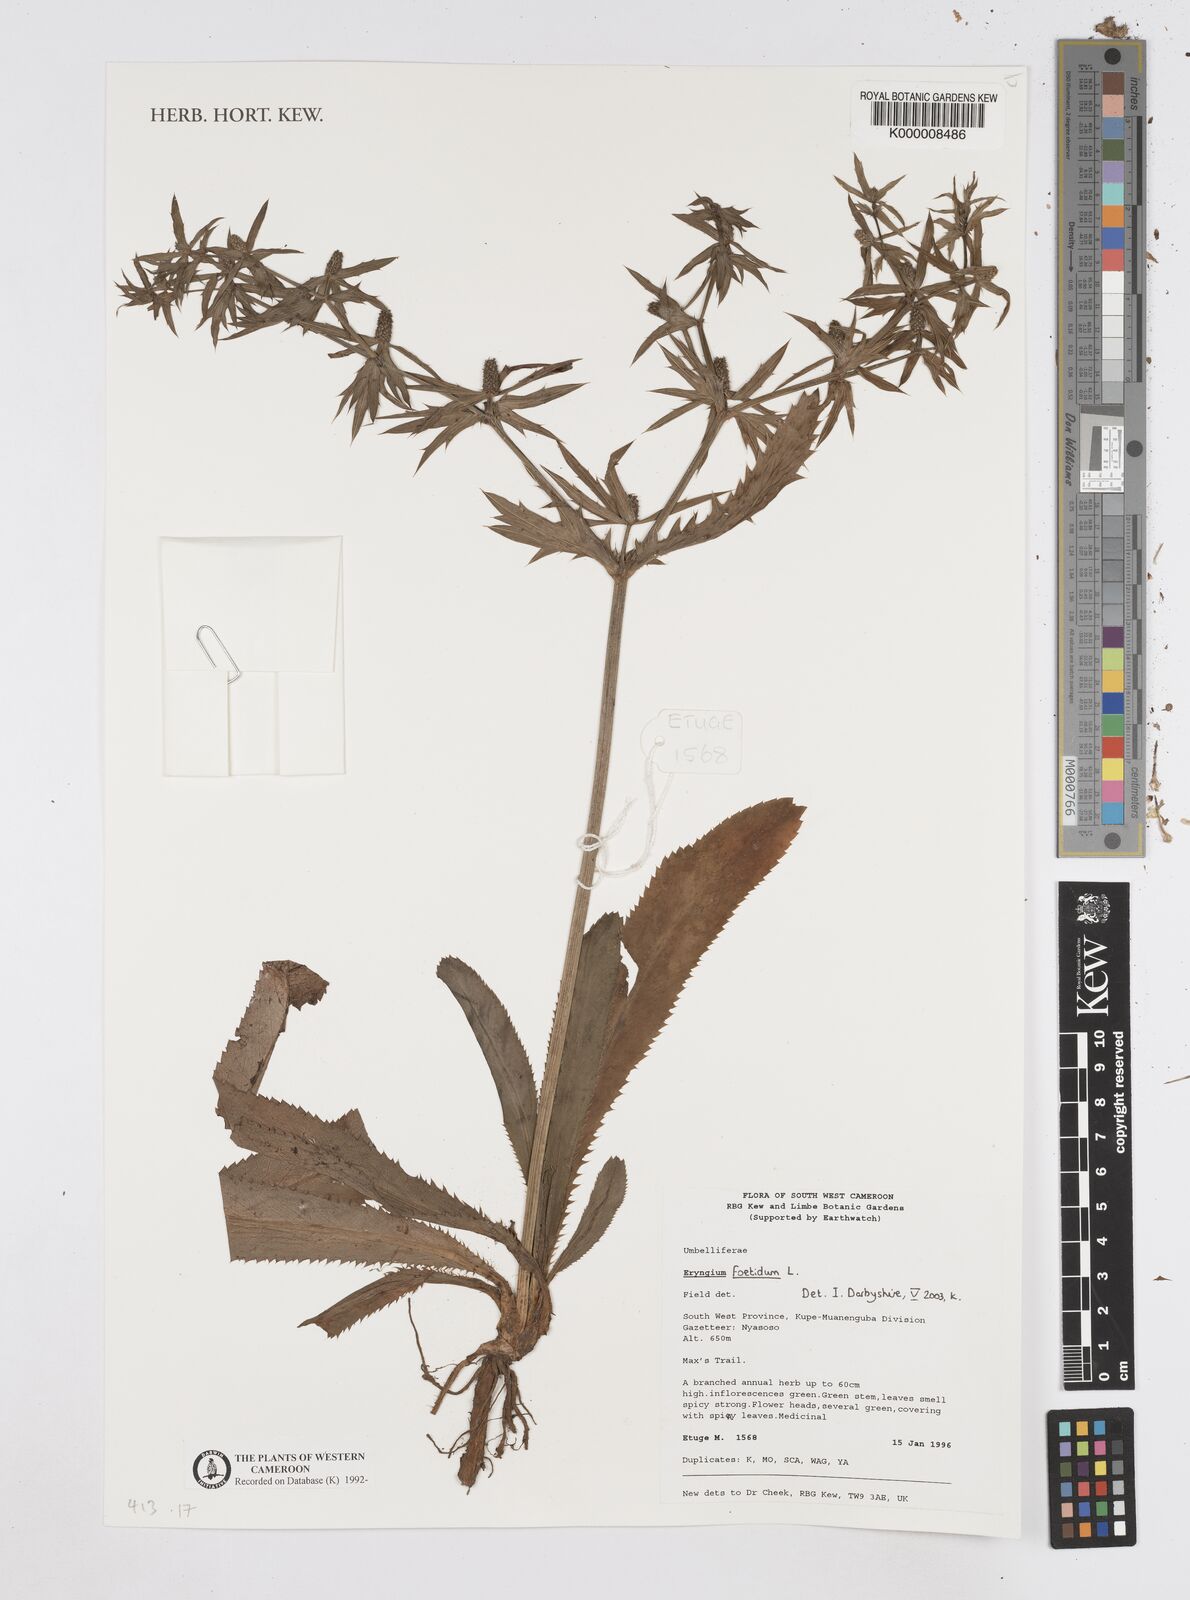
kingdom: Plantae
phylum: Tracheophyta
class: Magnoliopsida
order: Apiales
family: Apiaceae
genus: Eryngium
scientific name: Eryngium foetidum
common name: Fitweed
